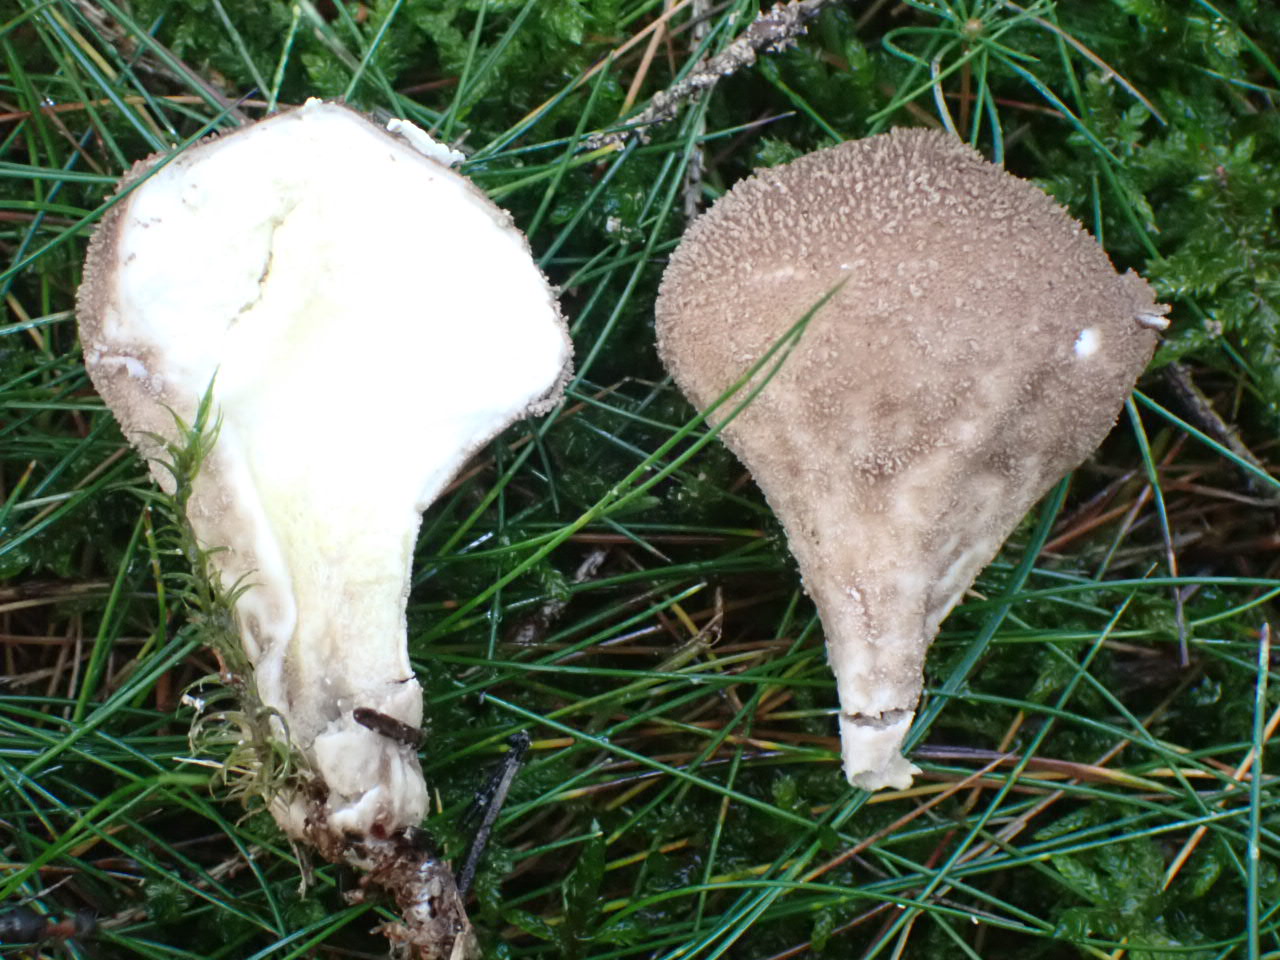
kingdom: Fungi
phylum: Basidiomycota
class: Agaricomycetes
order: Agaricales
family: Agaricaceae
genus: Lycoperdon
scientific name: Lycoperdon
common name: støvbold
